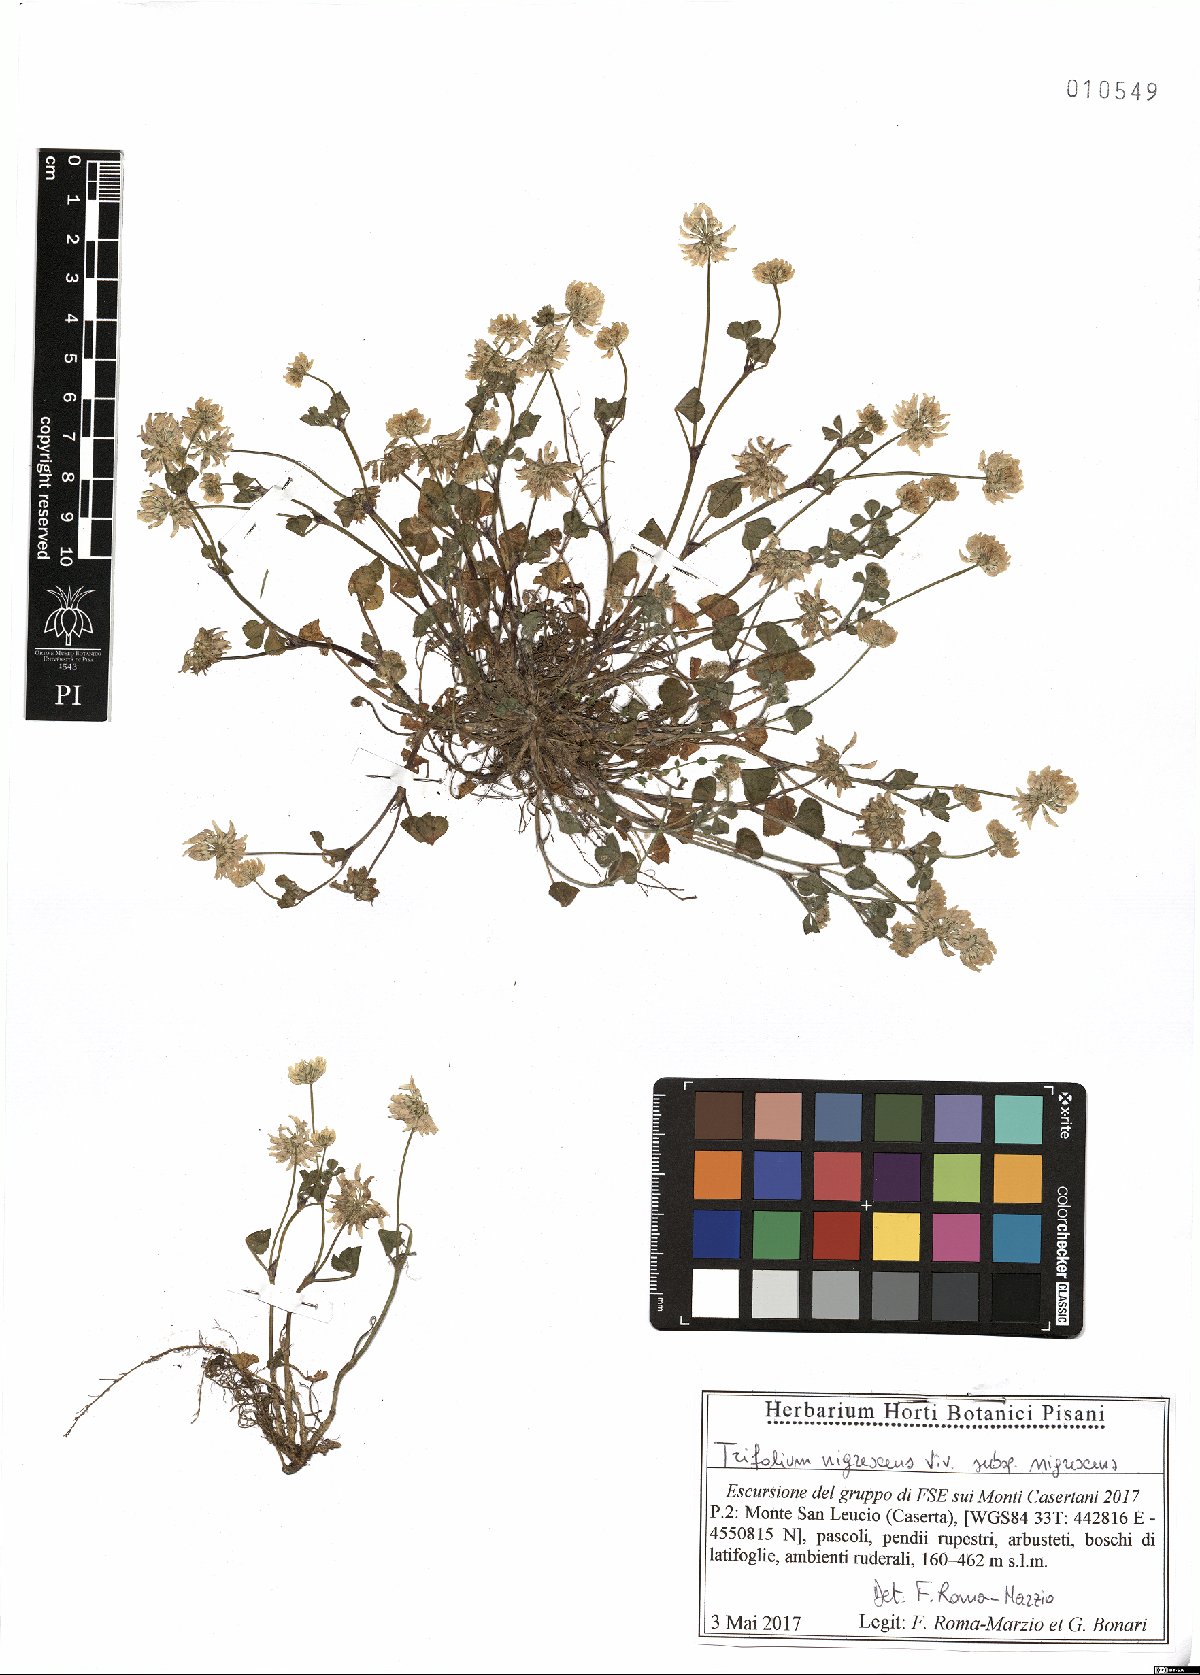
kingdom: Plantae
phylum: Tracheophyta
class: Magnoliopsida
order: Fabales
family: Fabaceae
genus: Trifolium
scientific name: Trifolium nigrescens
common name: Small white clover
